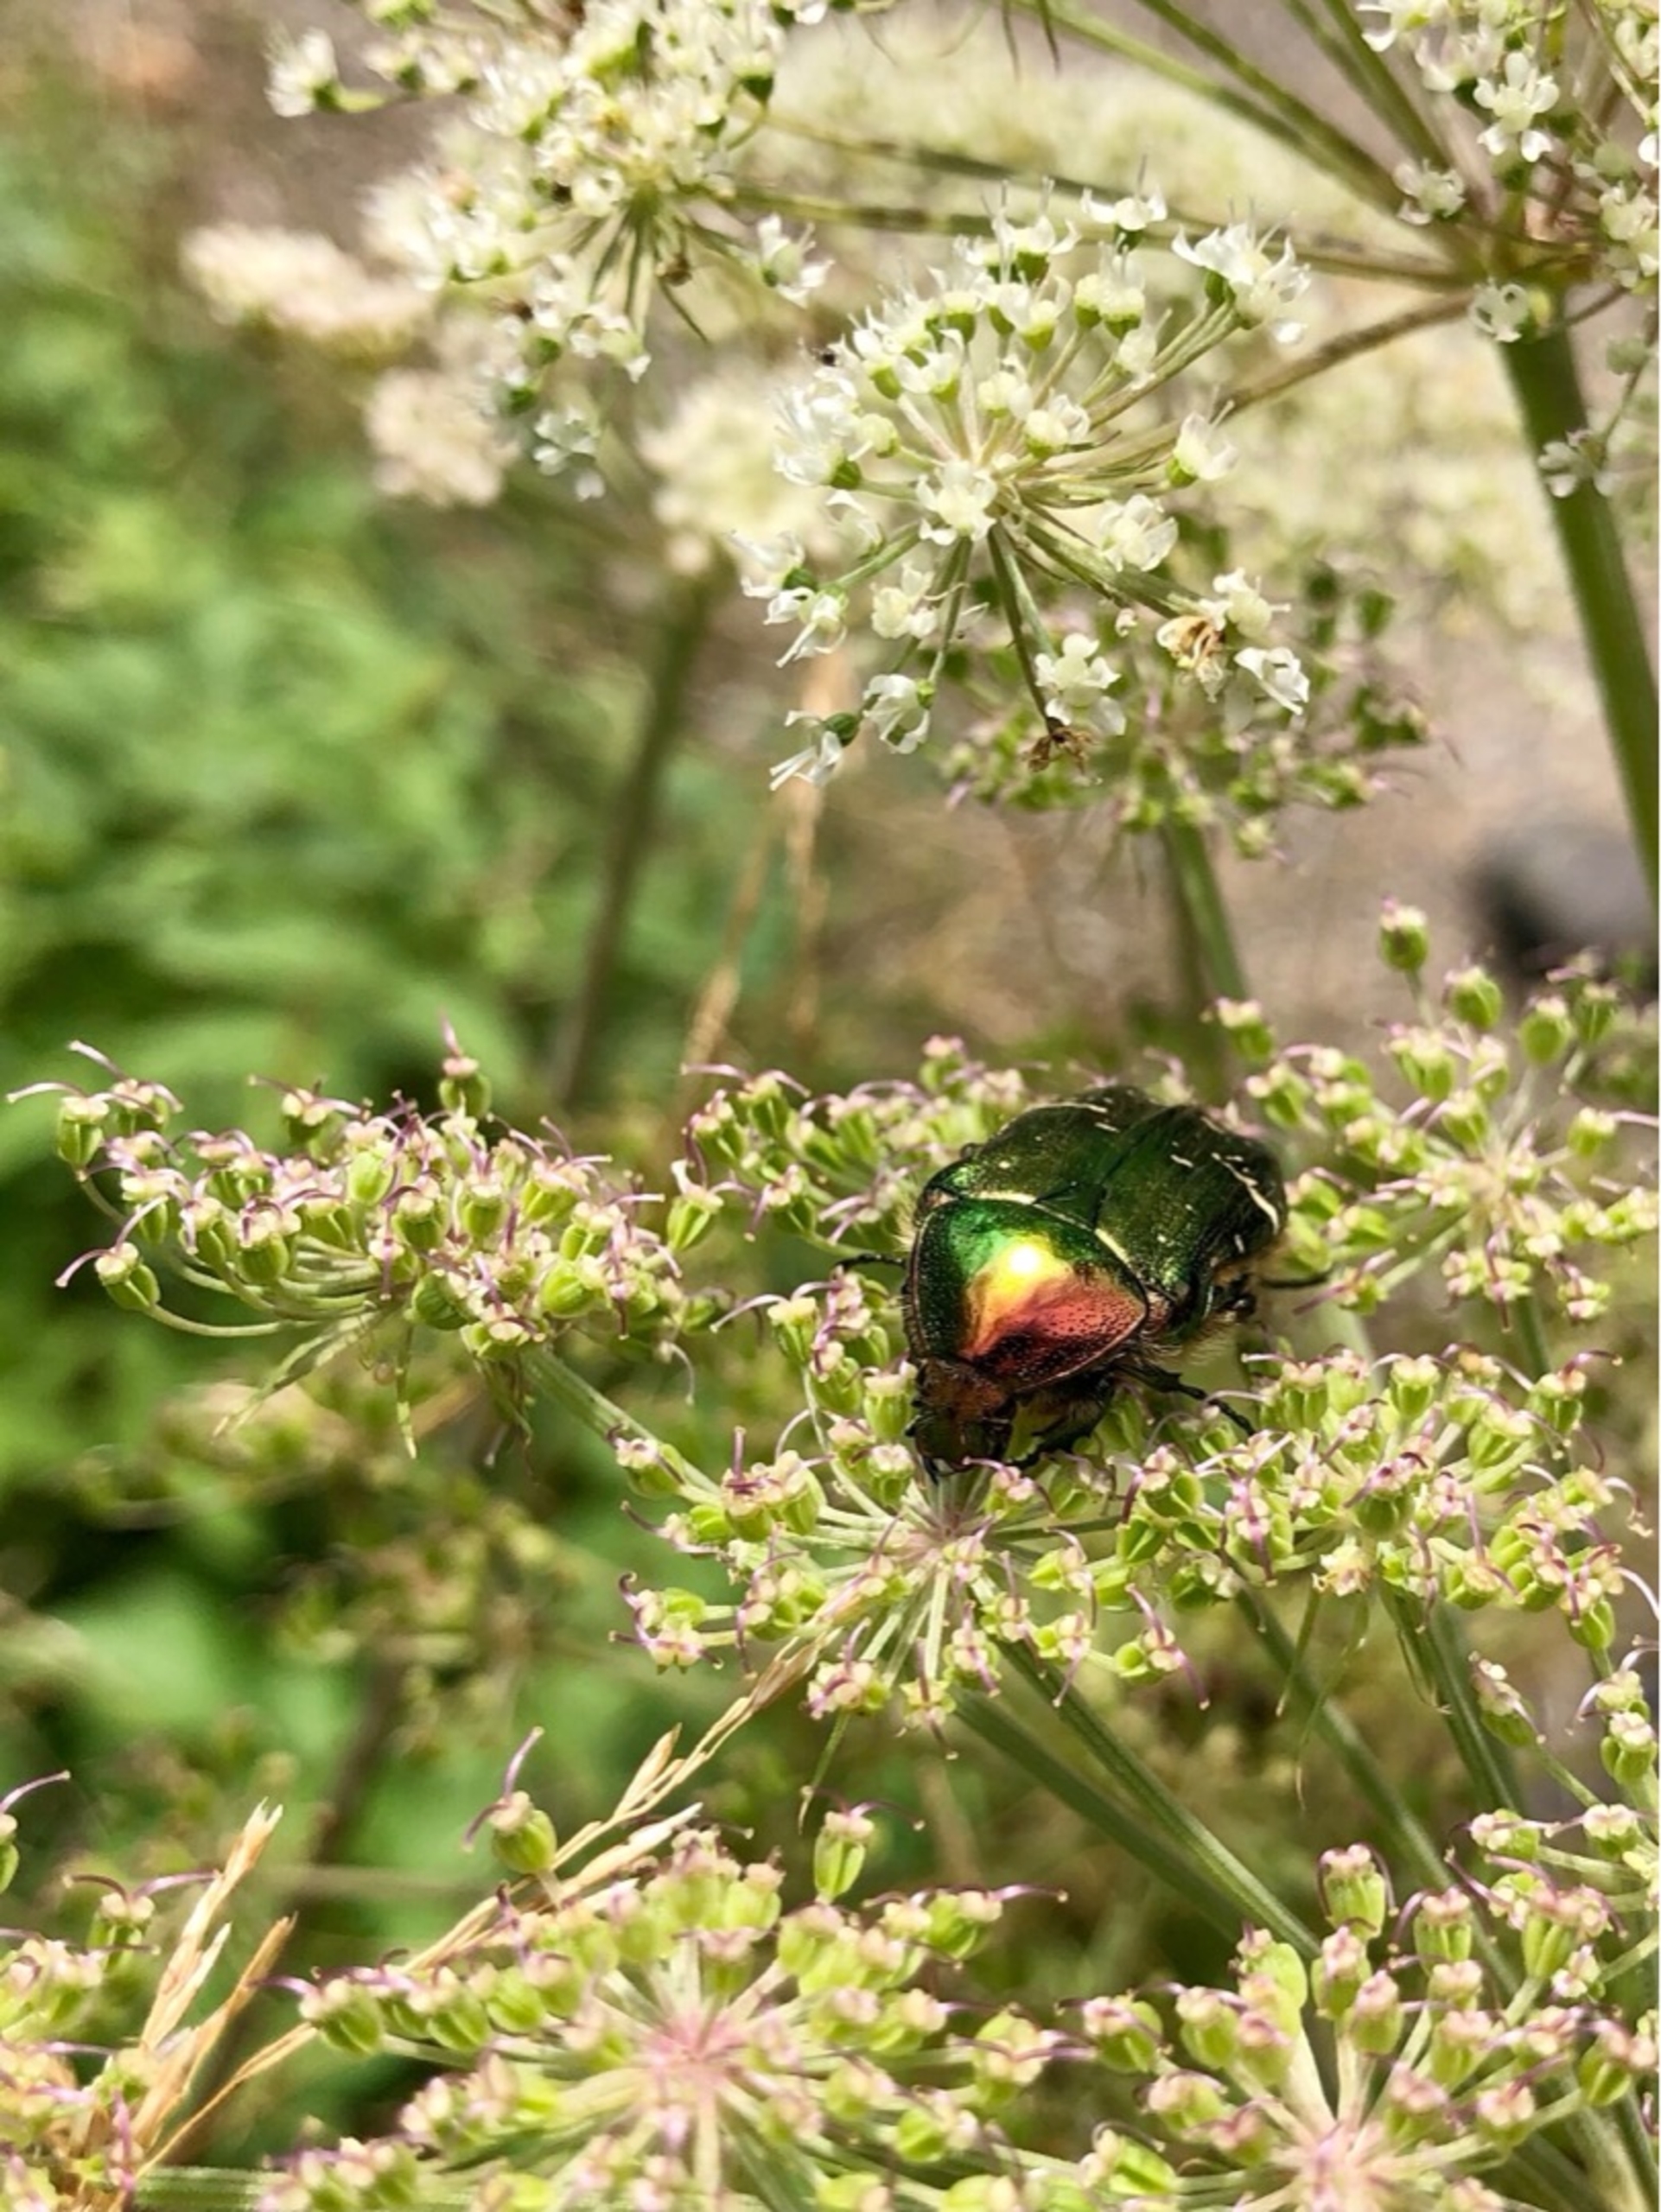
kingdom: Animalia
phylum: Arthropoda
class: Insecta
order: Coleoptera
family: Scarabaeidae
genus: Cetonia
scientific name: Cetonia aurata
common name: Grøn guldbasse
